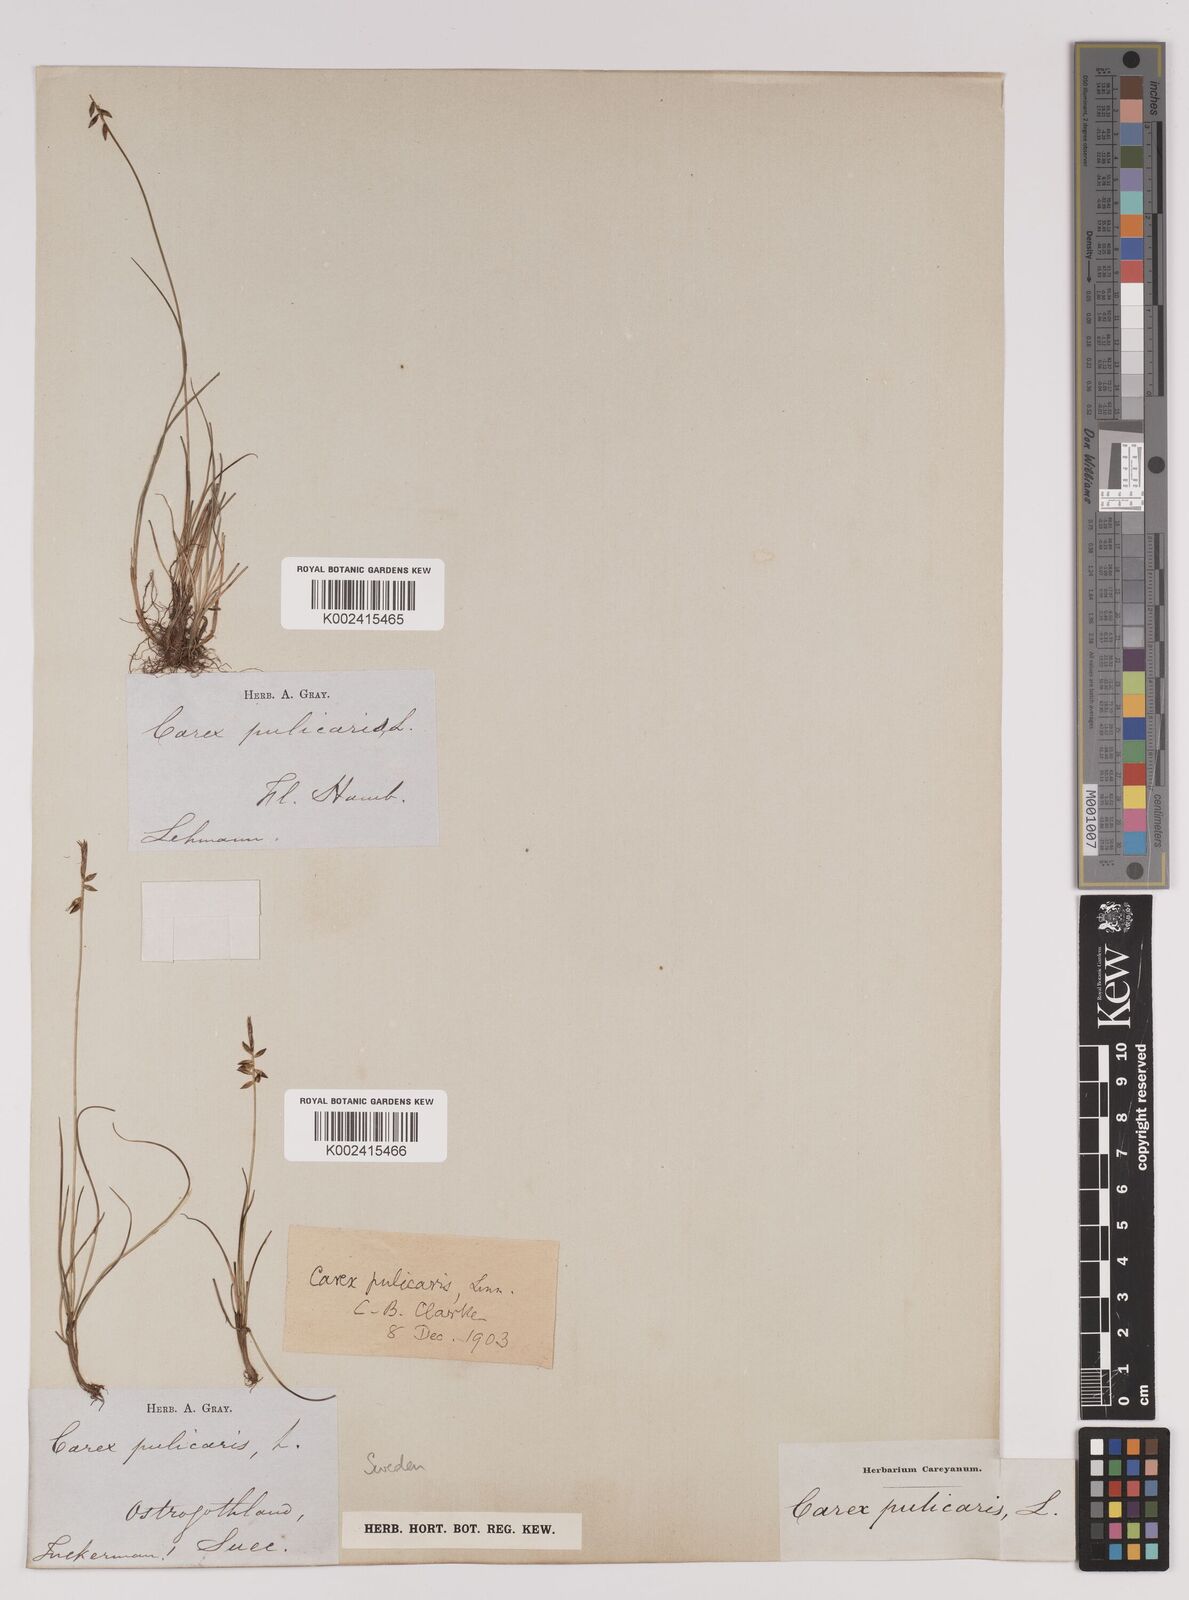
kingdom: Plantae
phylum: Tracheophyta
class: Liliopsida
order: Poales
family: Cyperaceae
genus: Carex
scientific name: Carex pulicaris
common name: Flea sedge
